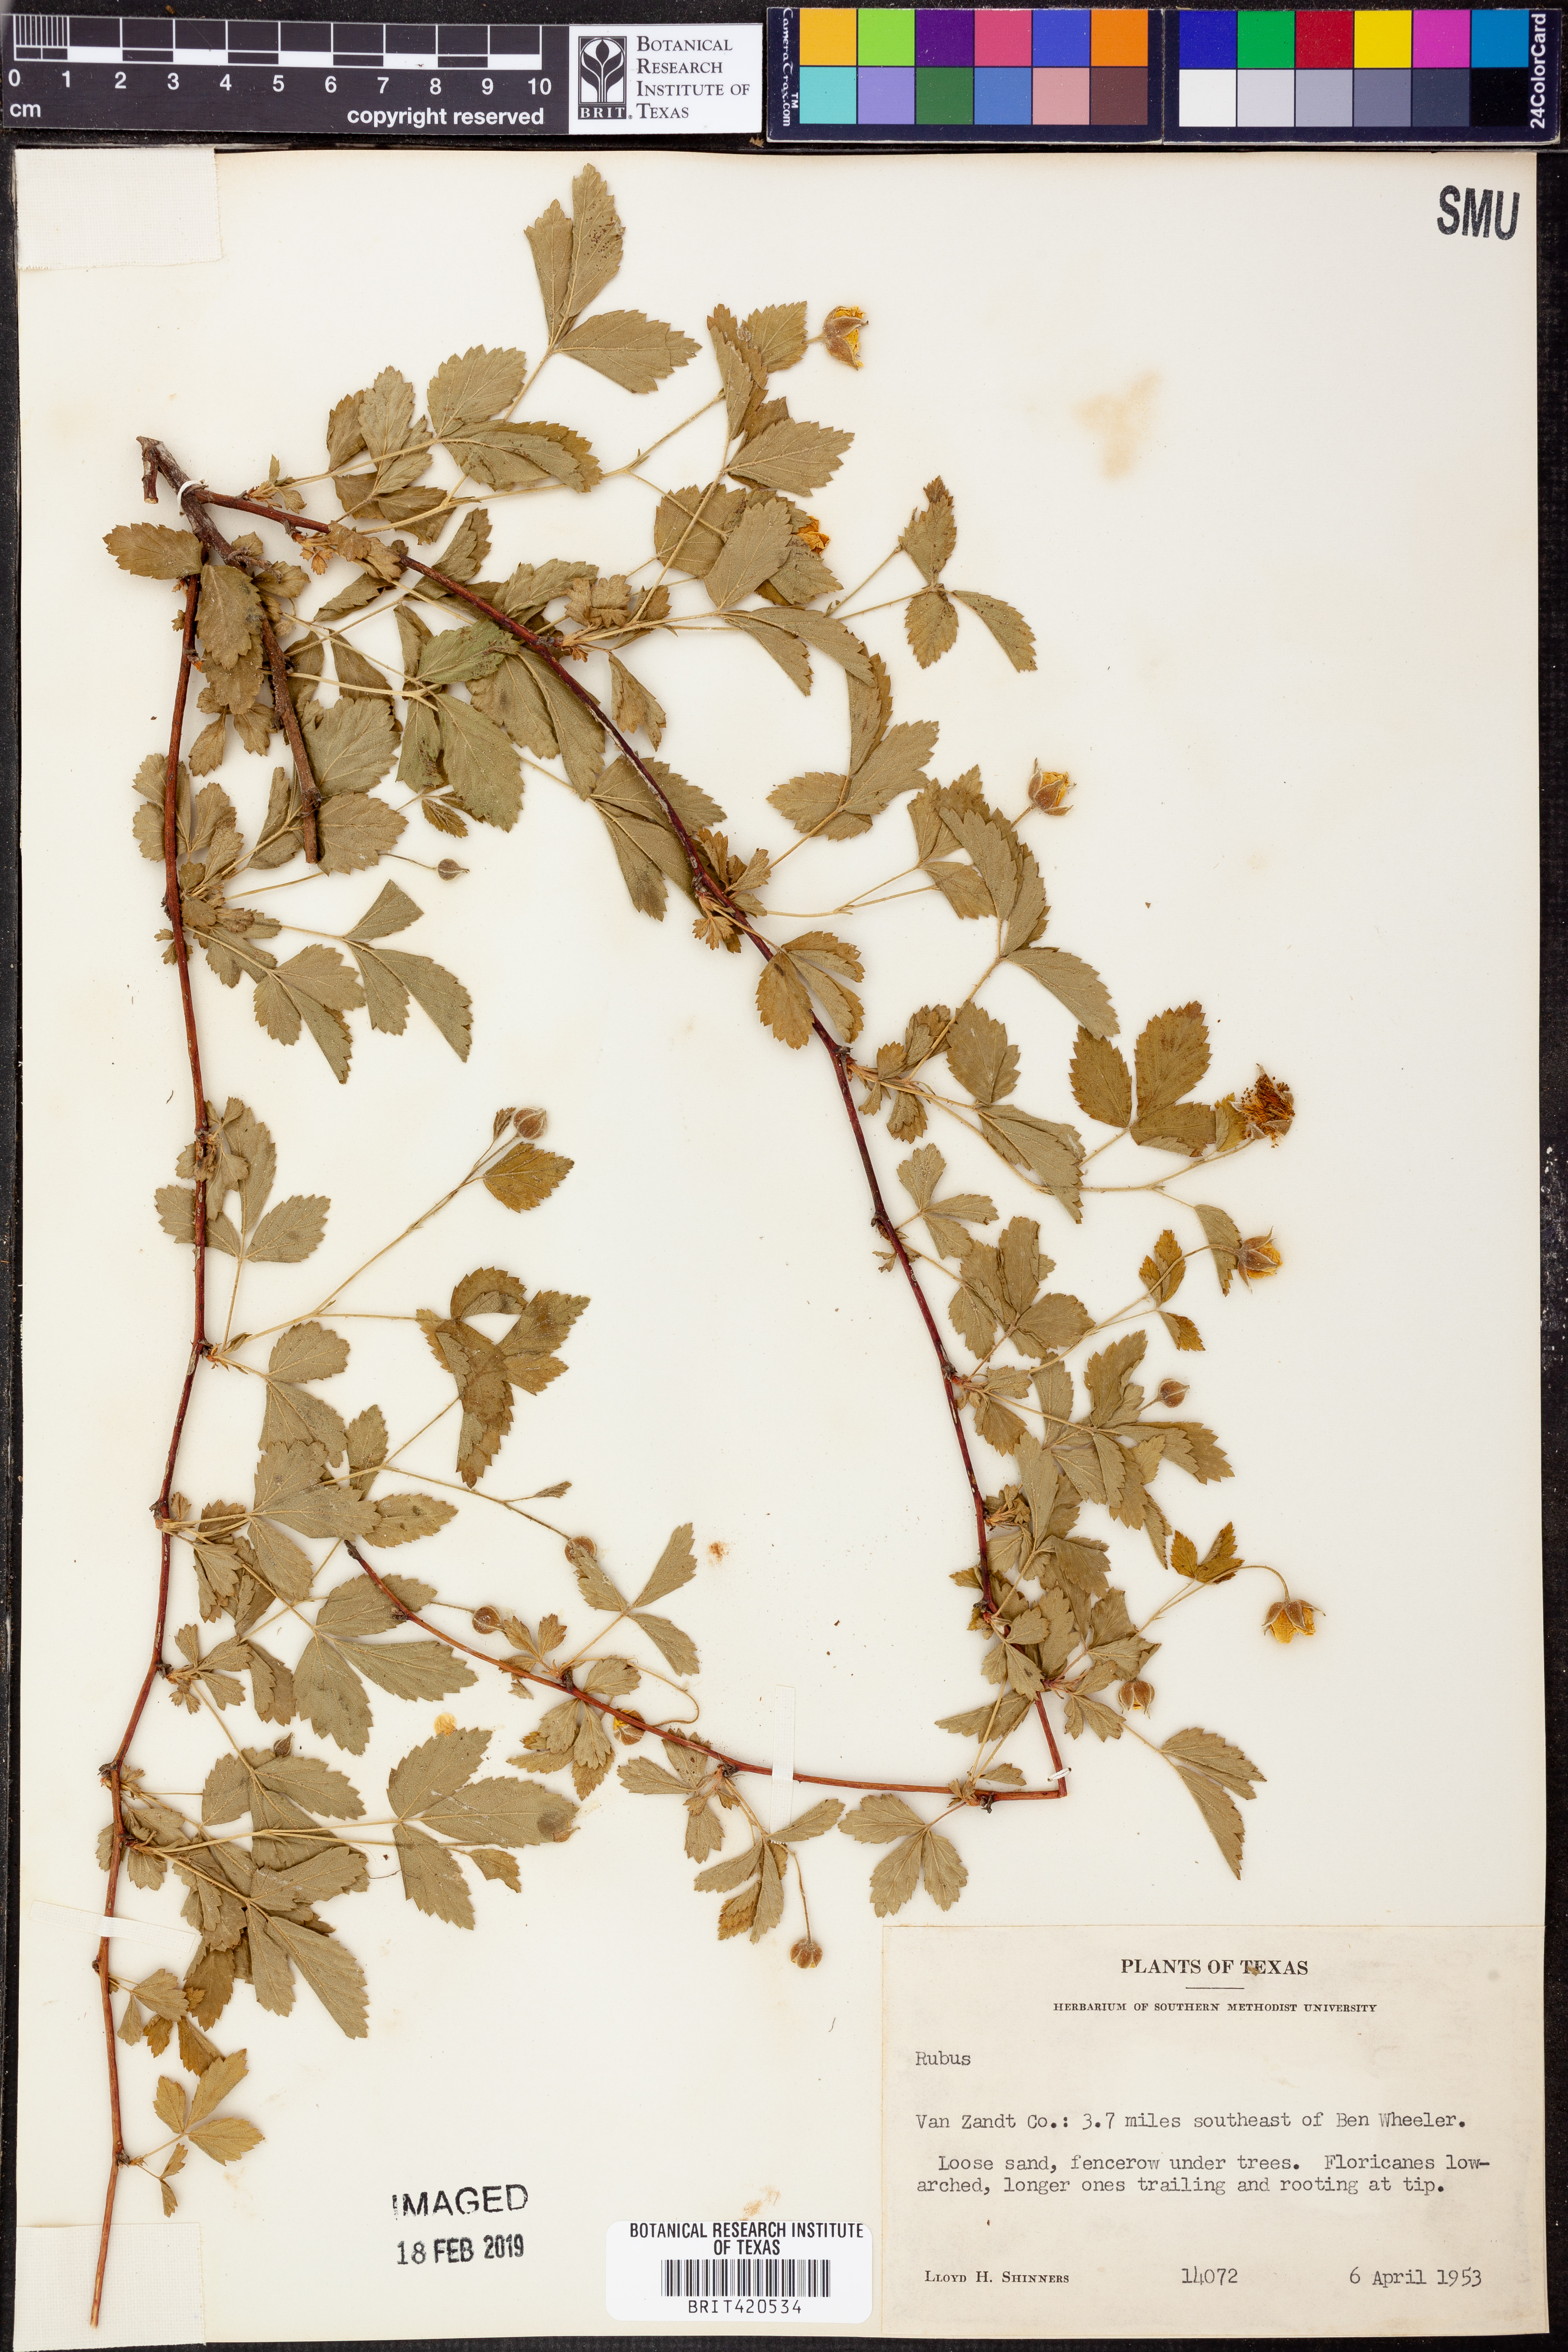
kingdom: Plantae
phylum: Tracheophyta
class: Magnoliopsida
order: Rosales
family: Rosaceae
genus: Rubus
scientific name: Rubus
